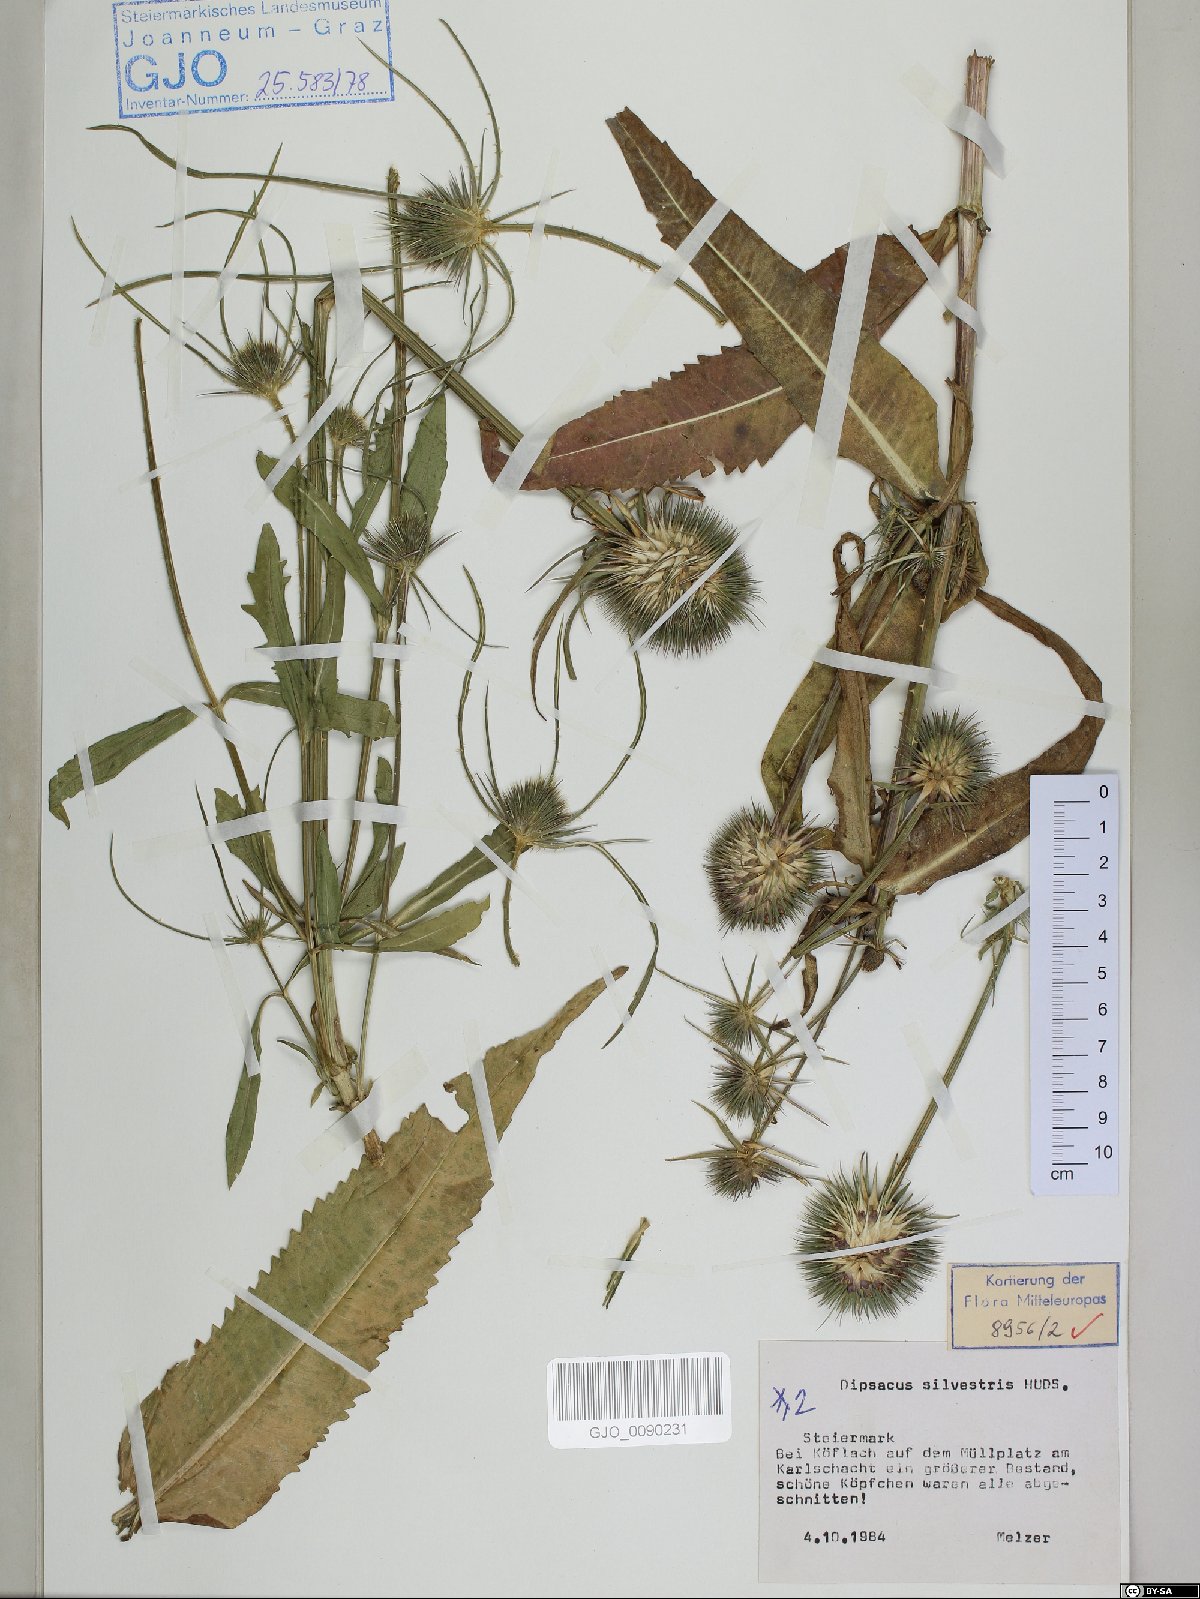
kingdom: Plantae
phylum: Tracheophyta
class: Magnoliopsida
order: Dipsacales
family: Caprifoliaceae
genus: Dipsacus
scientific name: Dipsacus fullonum
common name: Teasel
